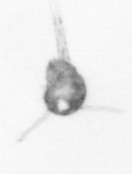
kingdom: Animalia
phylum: Arthropoda
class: Copepoda
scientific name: Copepoda
